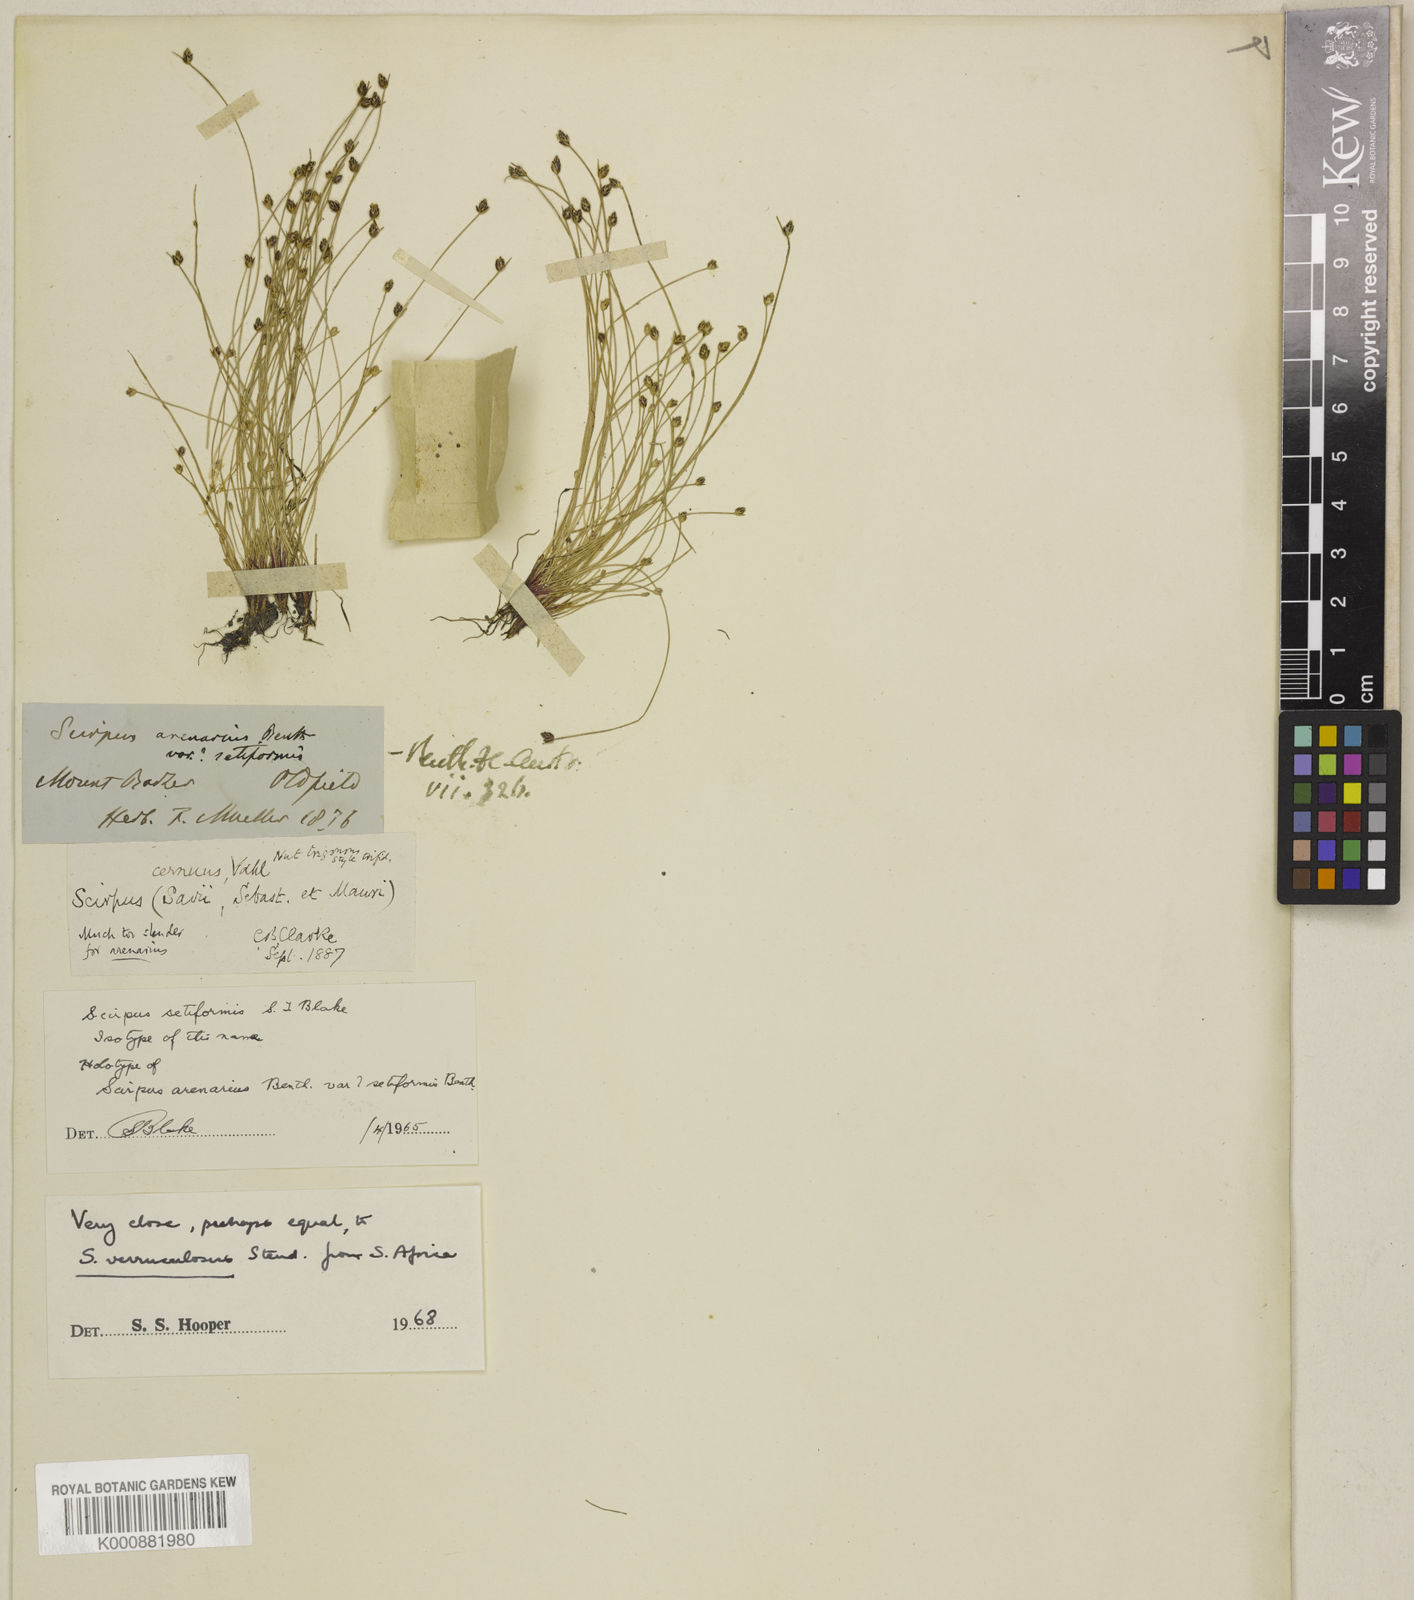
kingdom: Plantae
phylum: Tracheophyta
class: Liliopsida
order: Poales
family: Cyperaceae
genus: Isolepis
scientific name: Isolepis cernua
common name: Slender club-rush
